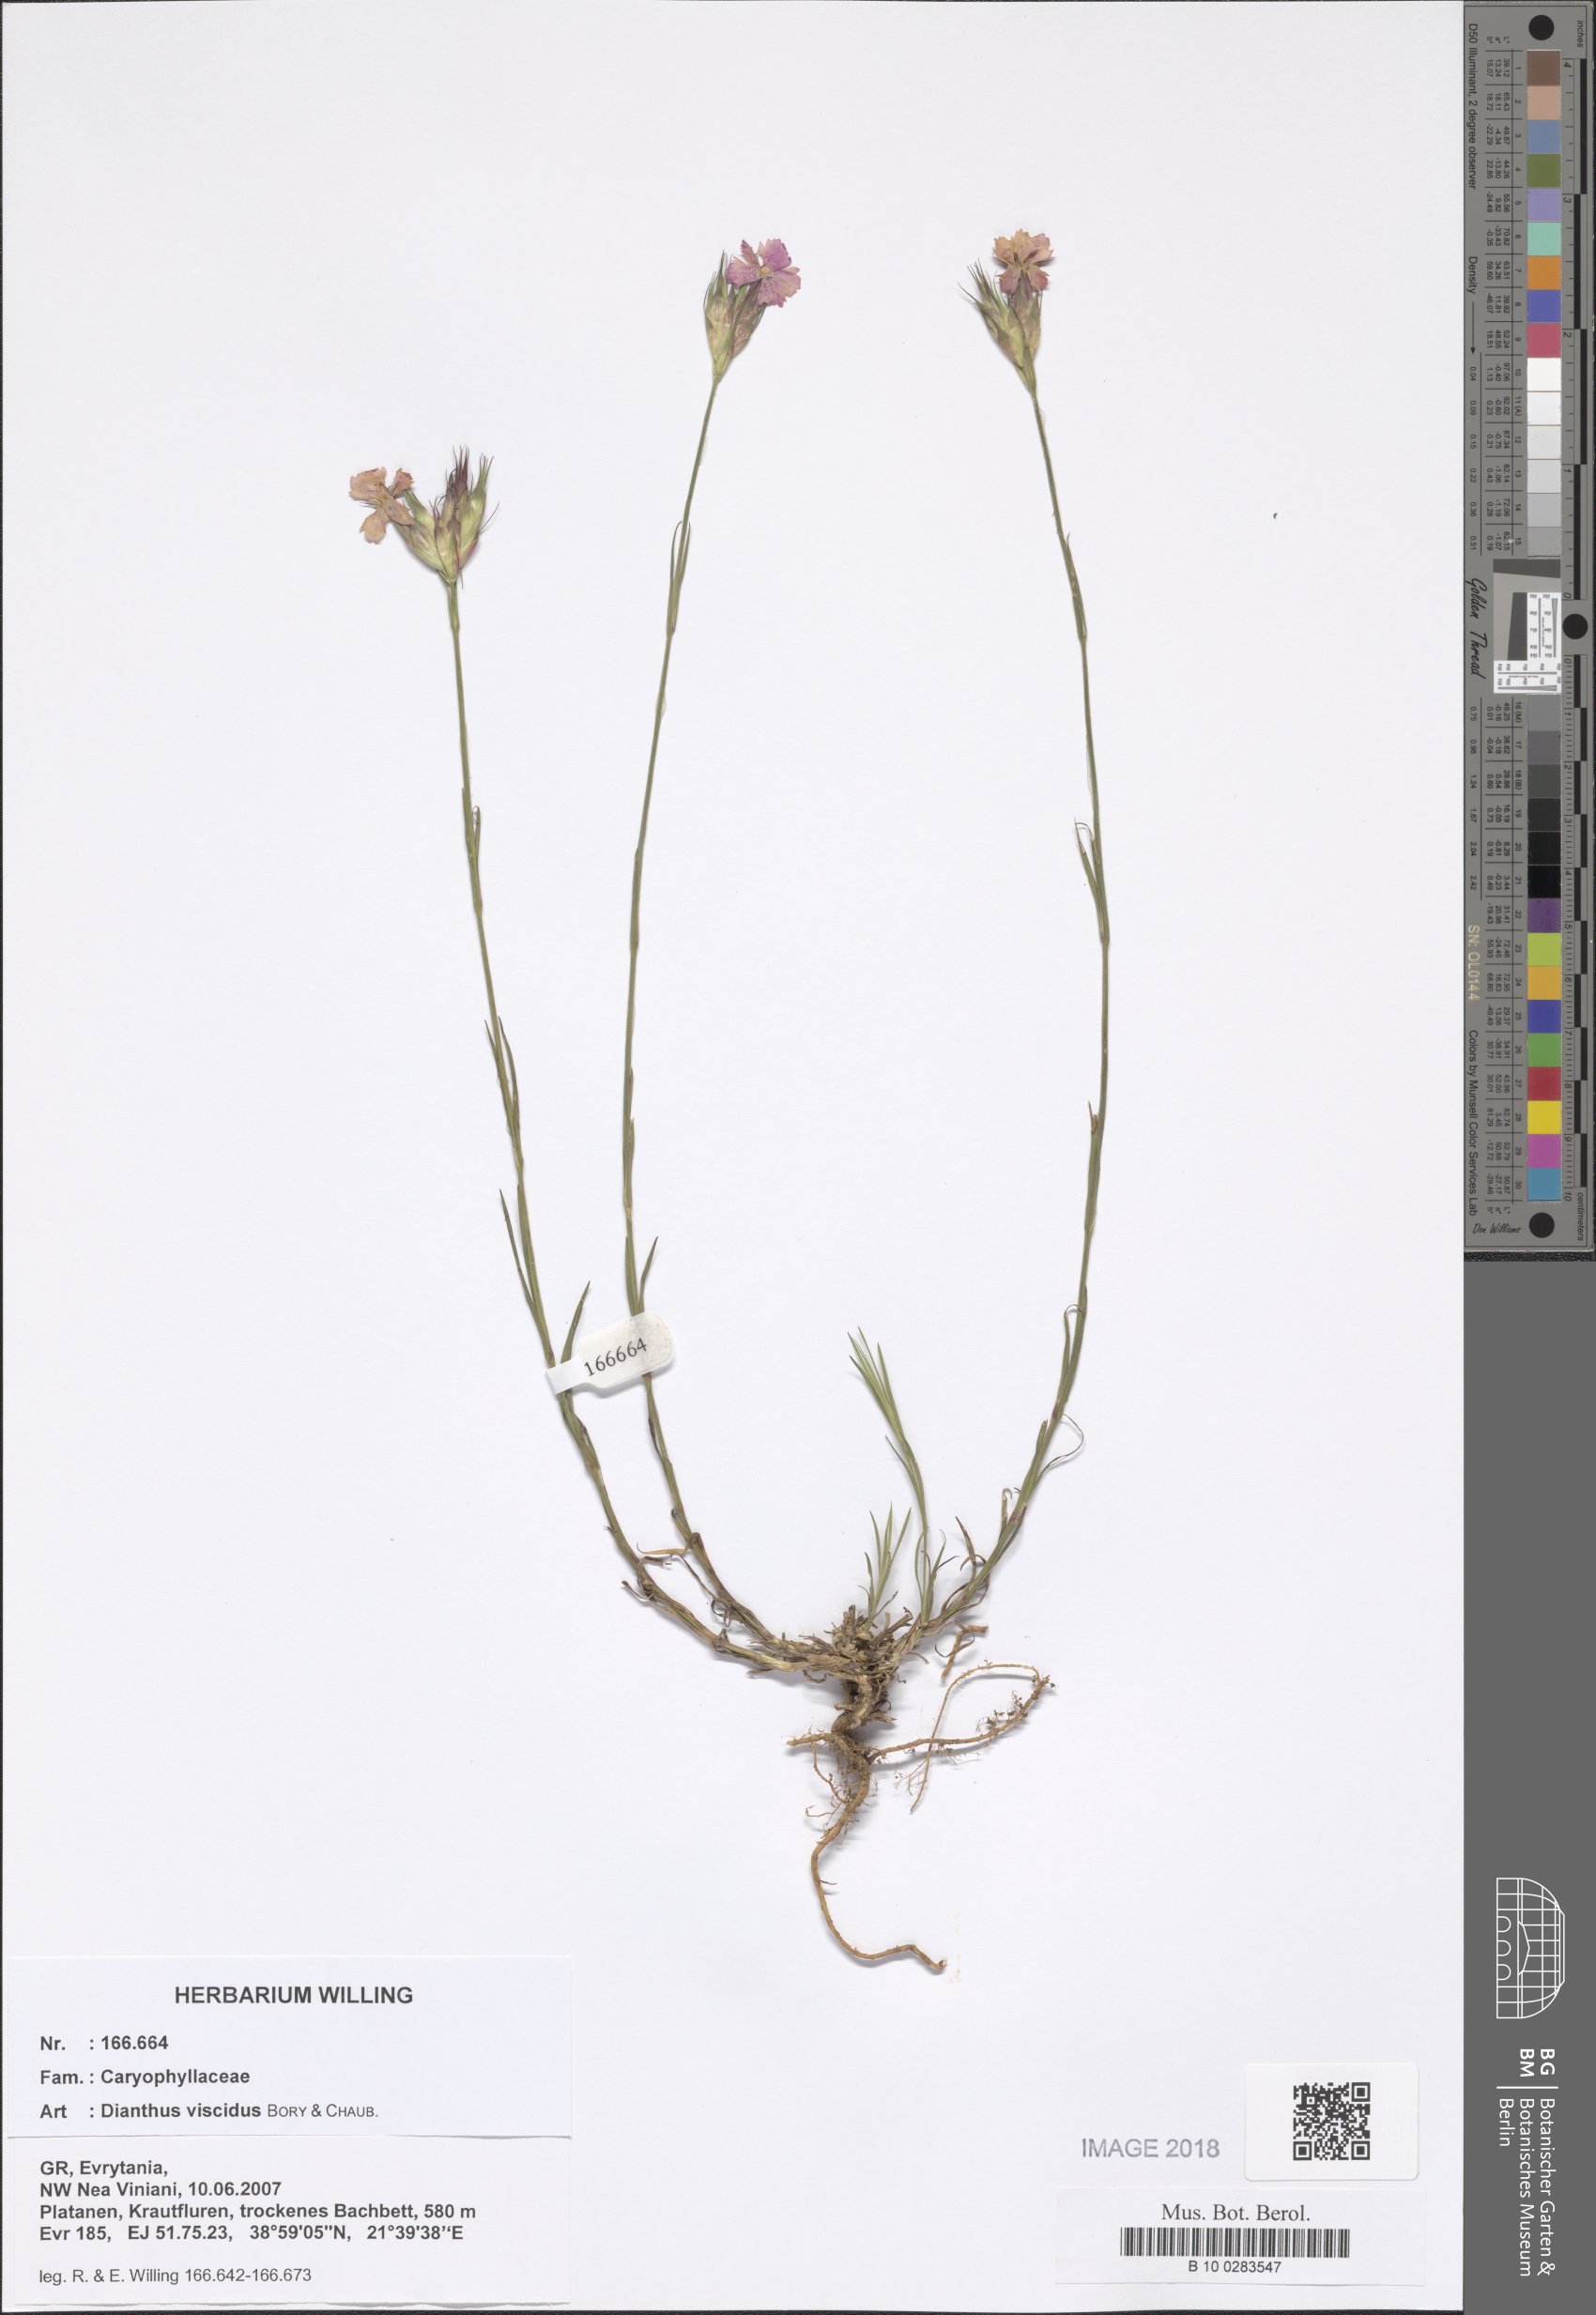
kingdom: Plantae
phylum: Tracheophyta
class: Magnoliopsida
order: Caryophyllales
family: Caryophyllaceae
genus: Dianthus
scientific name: Dianthus viscidus
